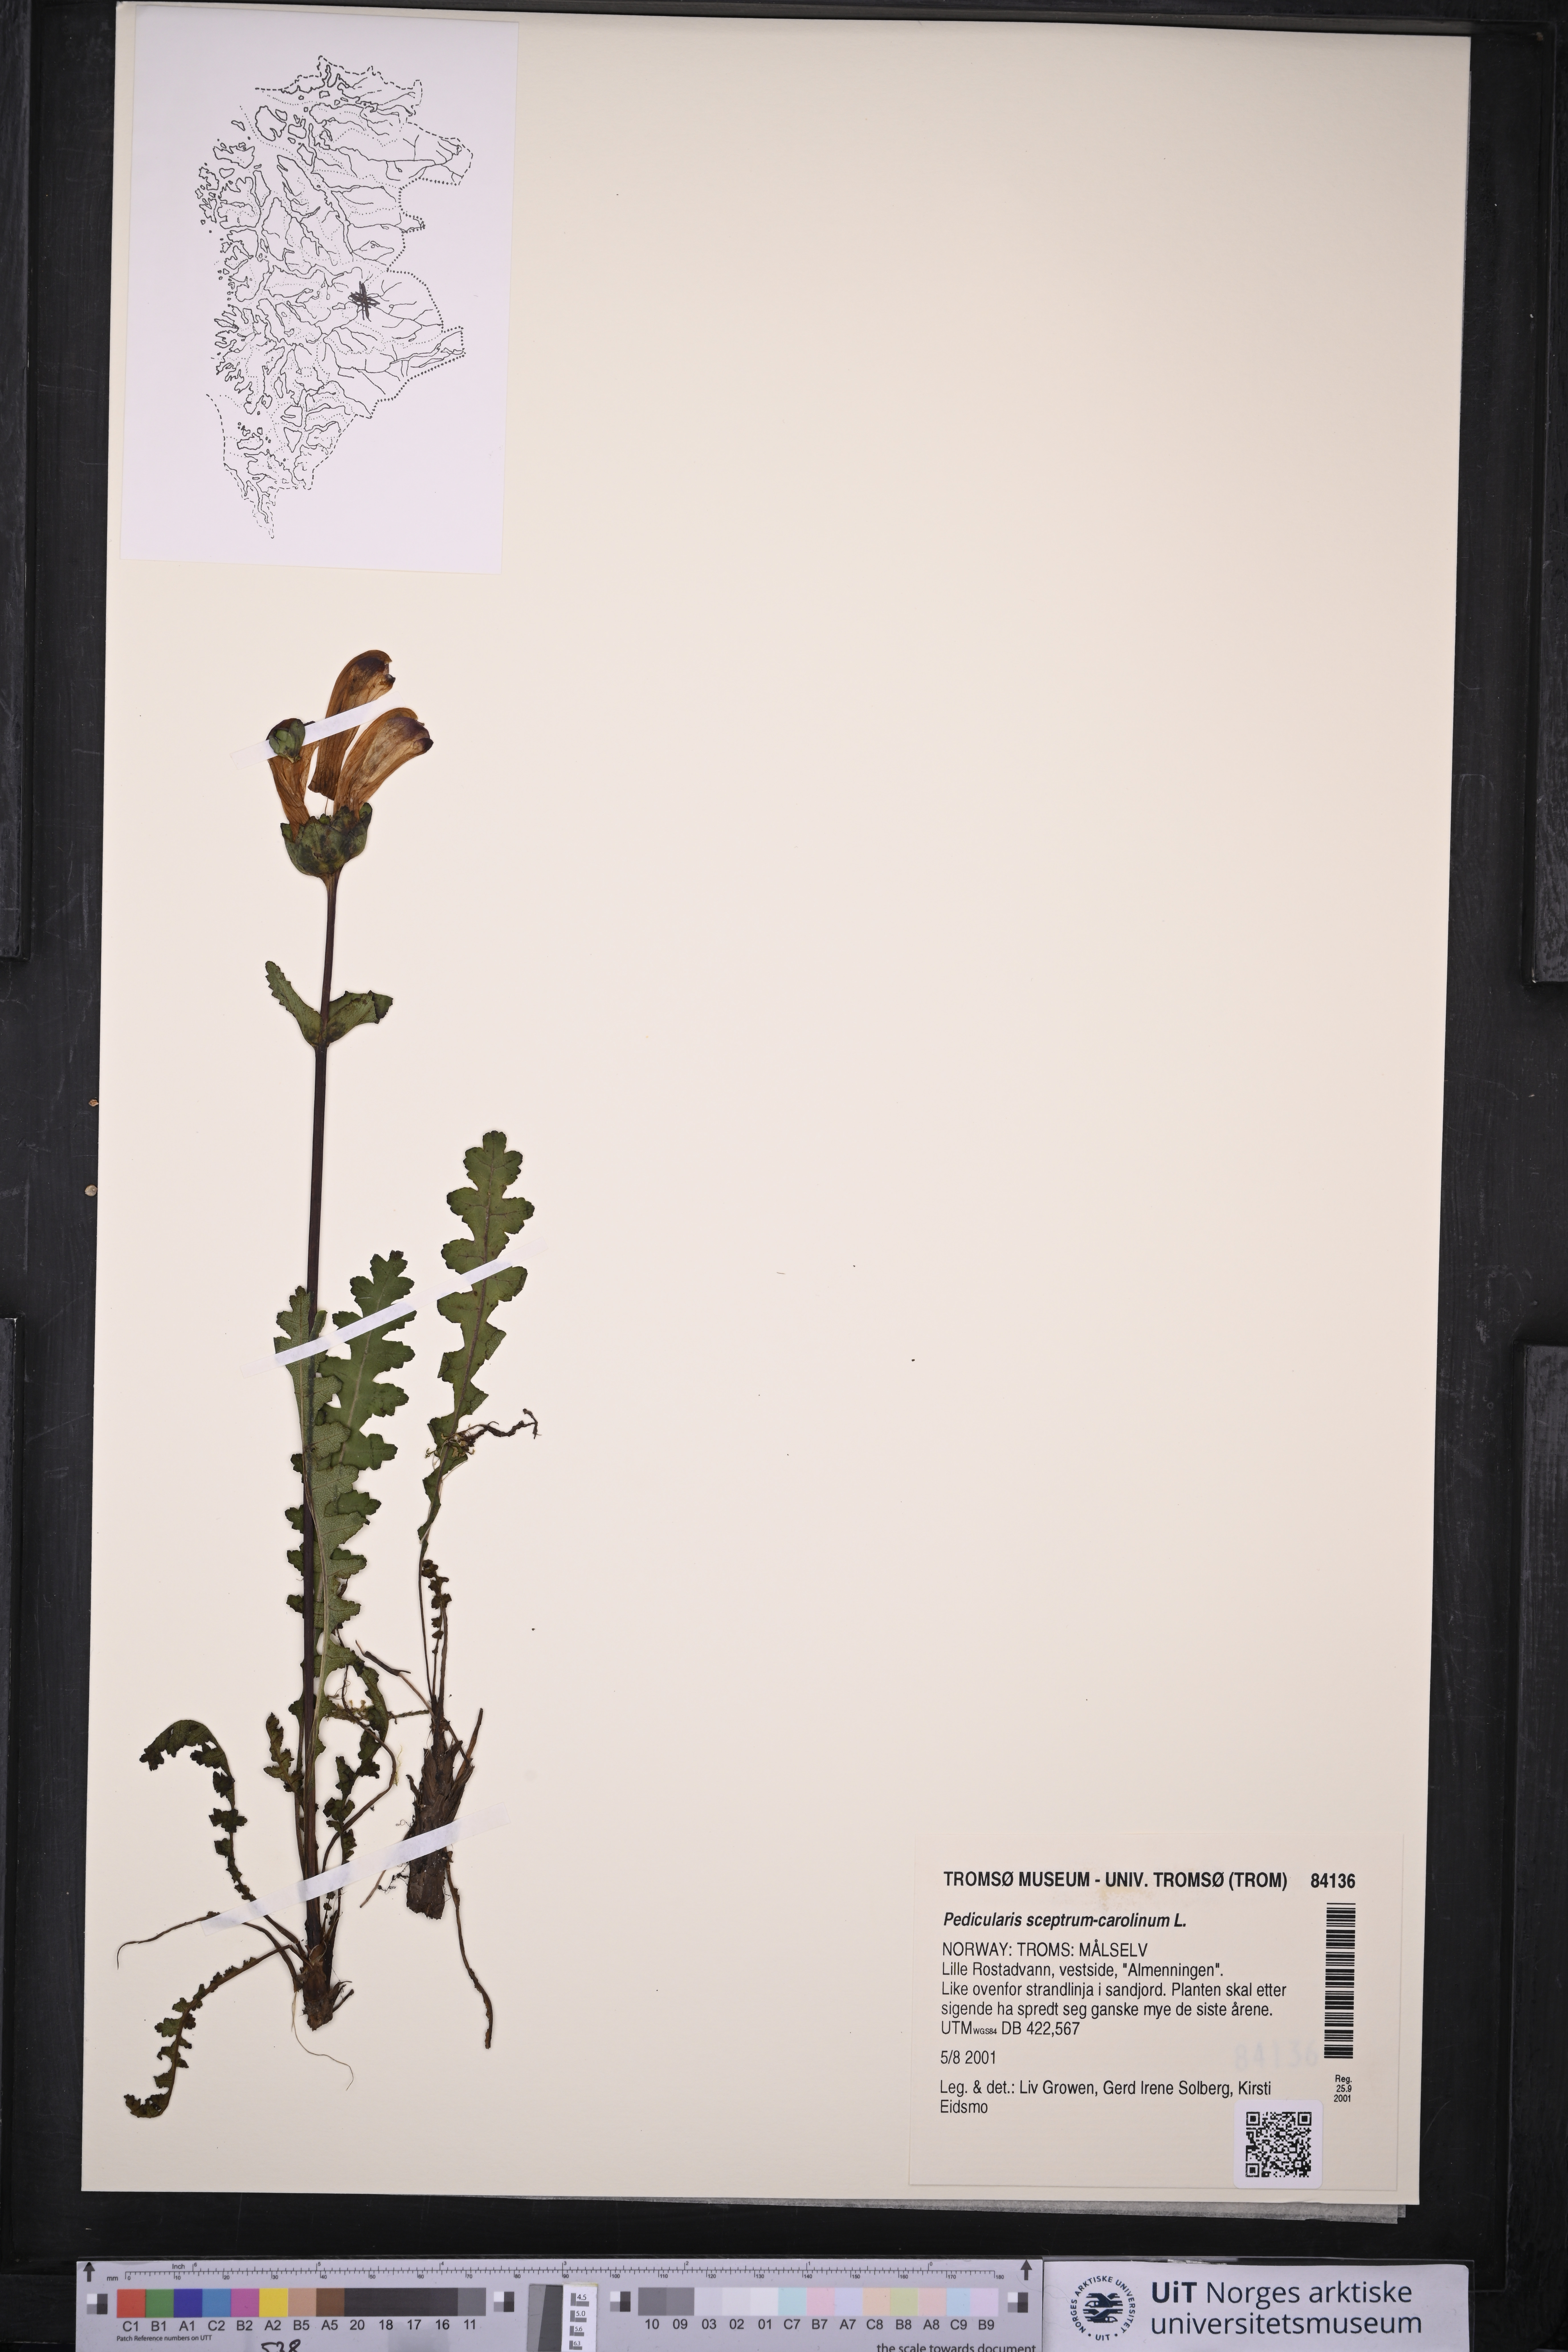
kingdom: Plantae
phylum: Tracheophyta
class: Magnoliopsida
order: Lamiales
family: Orobanchaceae
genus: Pedicularis
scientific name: Pedicularis sceptrum-carolinum
